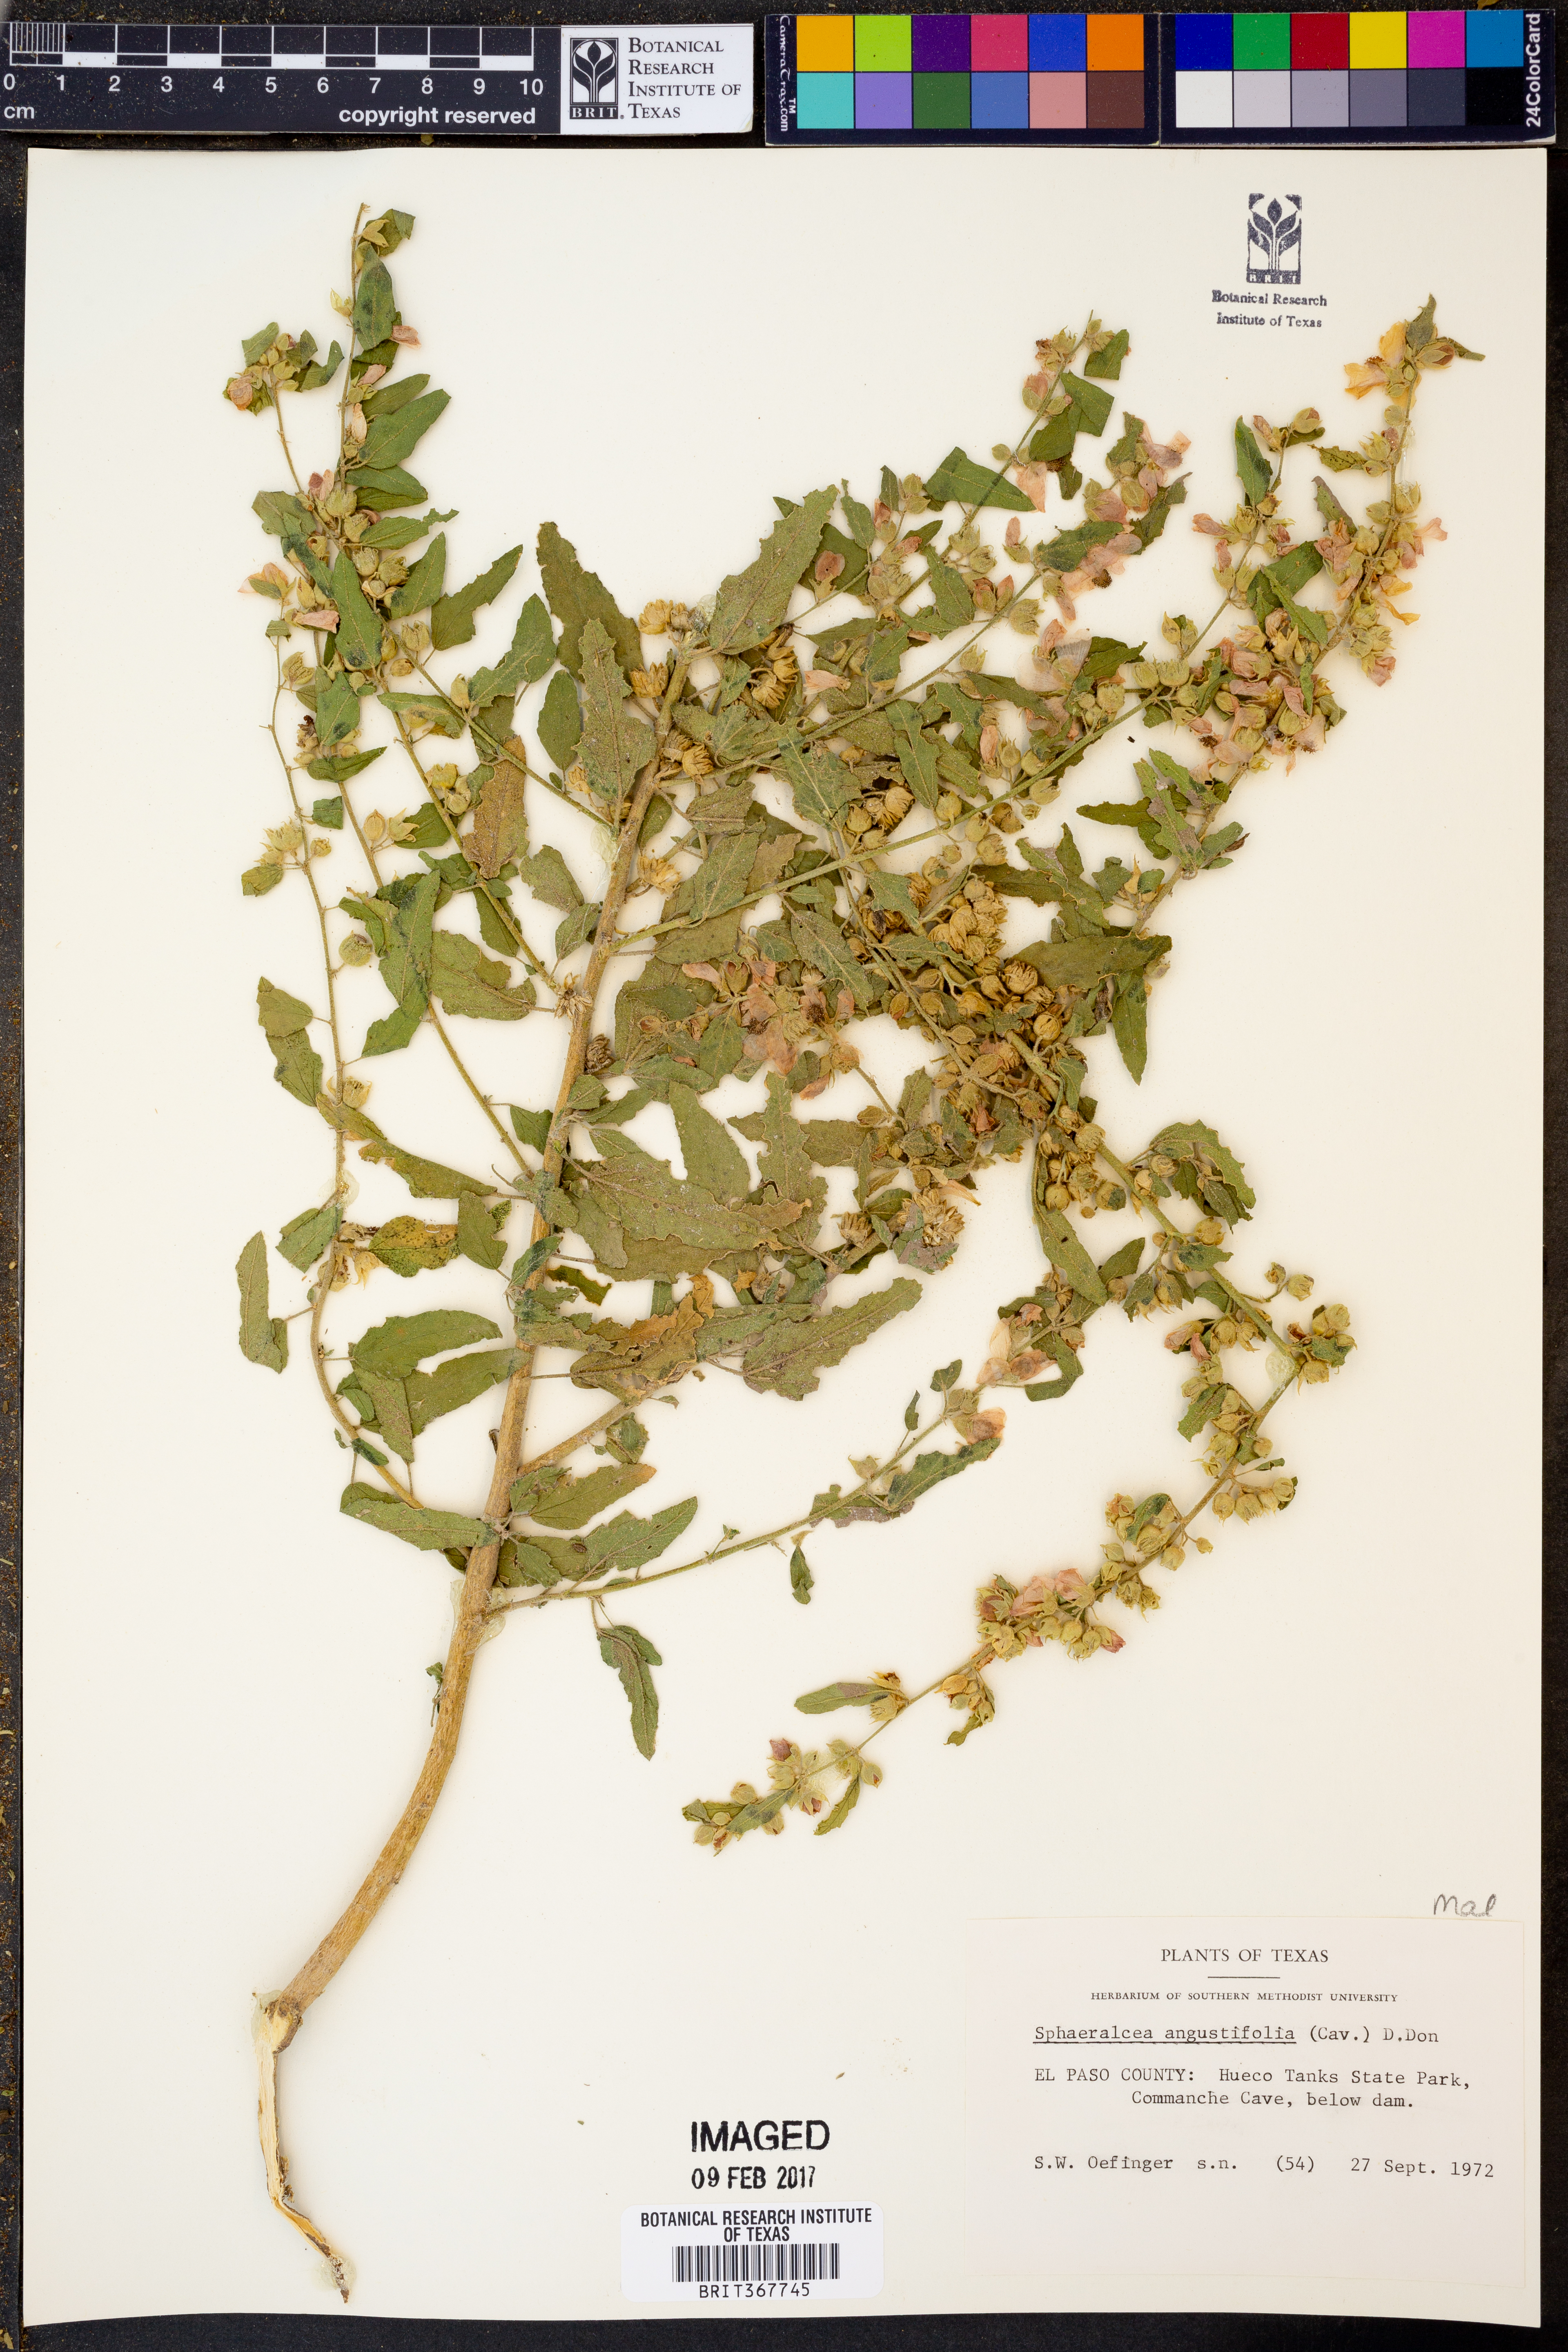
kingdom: Plantae
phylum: Tracheophyta
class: Magnoliopsida
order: Malvales
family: Malvaceae
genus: Sphaeralcea
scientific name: Sphaeralcea angustifolia
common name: Copper globe-mallow
